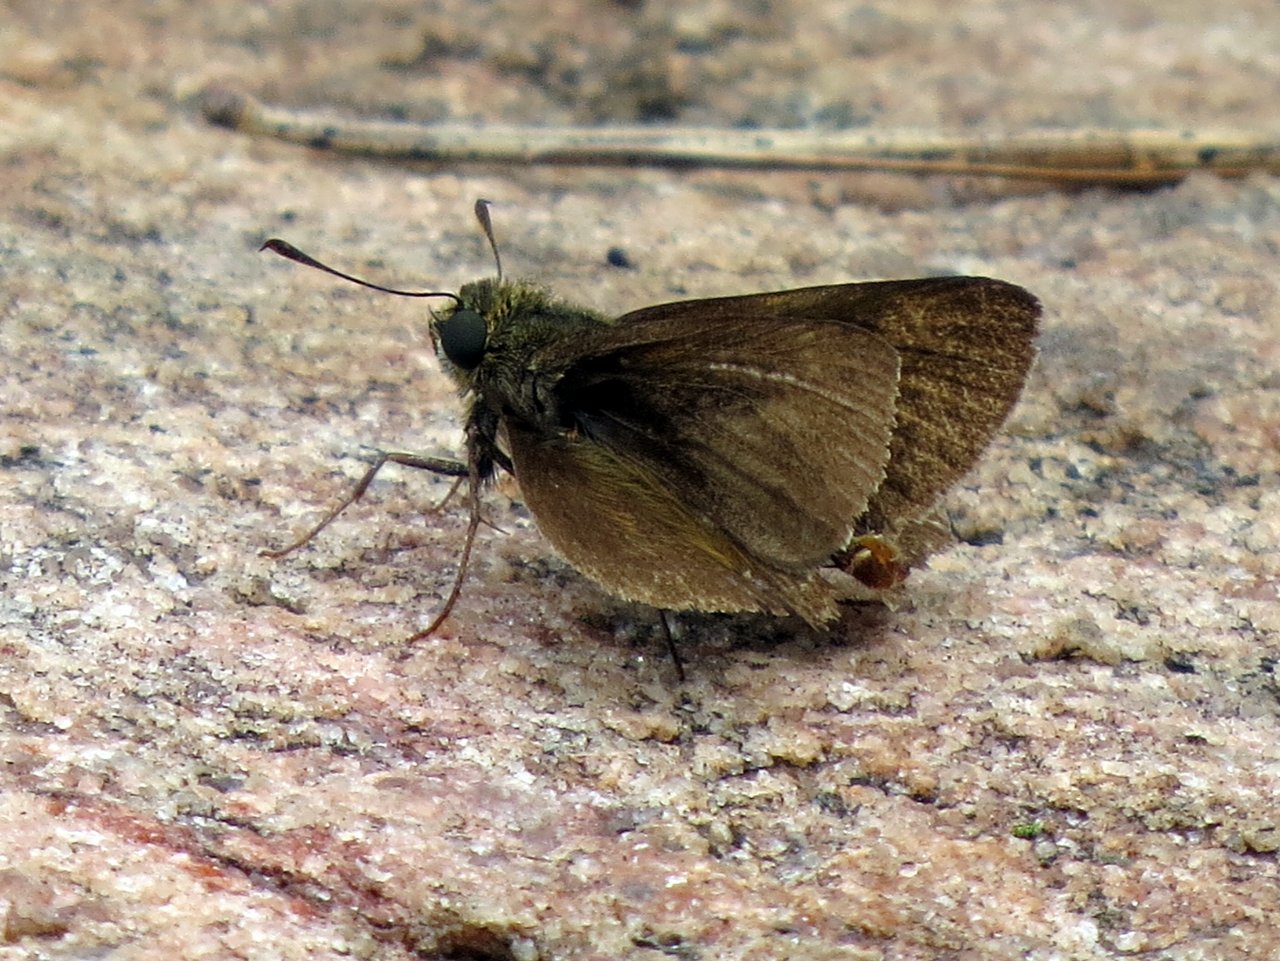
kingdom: Animalia
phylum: Arthropoda
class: Insecta
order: Lepidoptera
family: Hesperiidae
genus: Euphyes
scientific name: Euphyes vestris
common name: Dun Skipper
